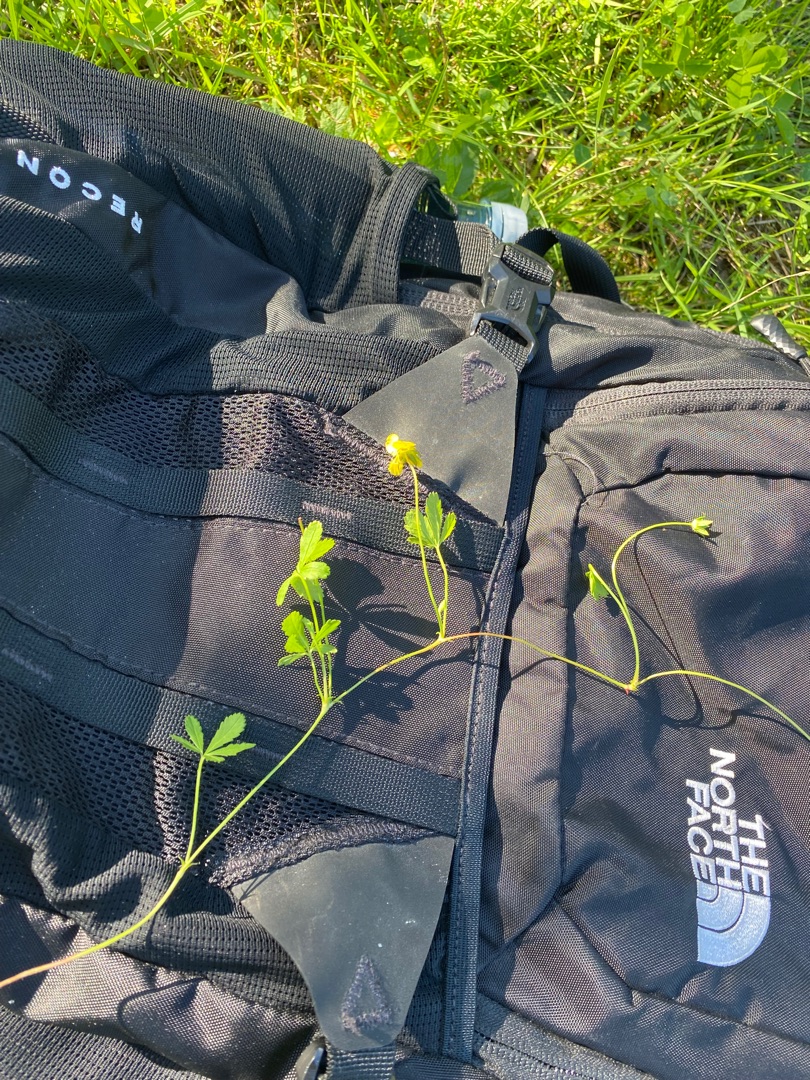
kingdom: Plantae
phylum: Tracheophyta
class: Magnoliopsida
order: Rosales
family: Rosaceae
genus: Potentilla
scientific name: Potentilla reptans
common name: Krybende potentil
